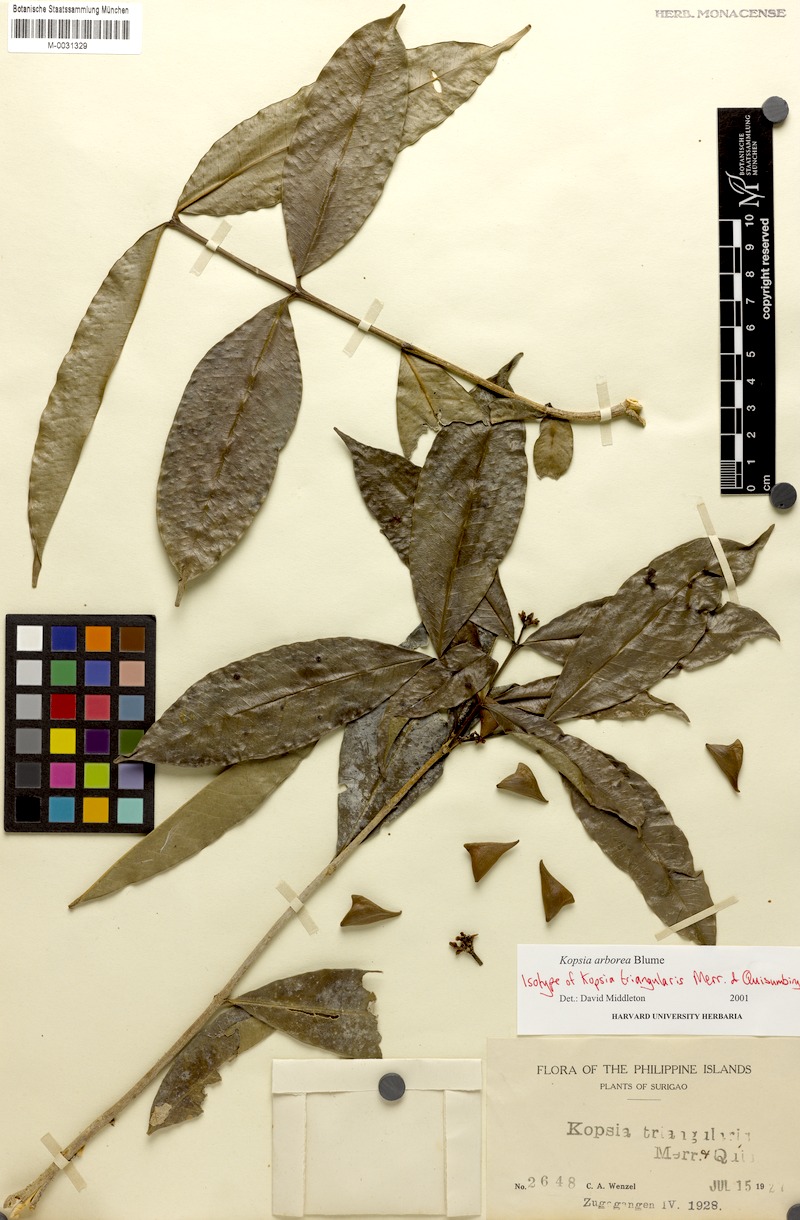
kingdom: Plantae
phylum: Tracheophyta
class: Magnoliopsida
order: Gentianales
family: Apocynaceae
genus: Kopsia
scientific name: Kopsia arborea
